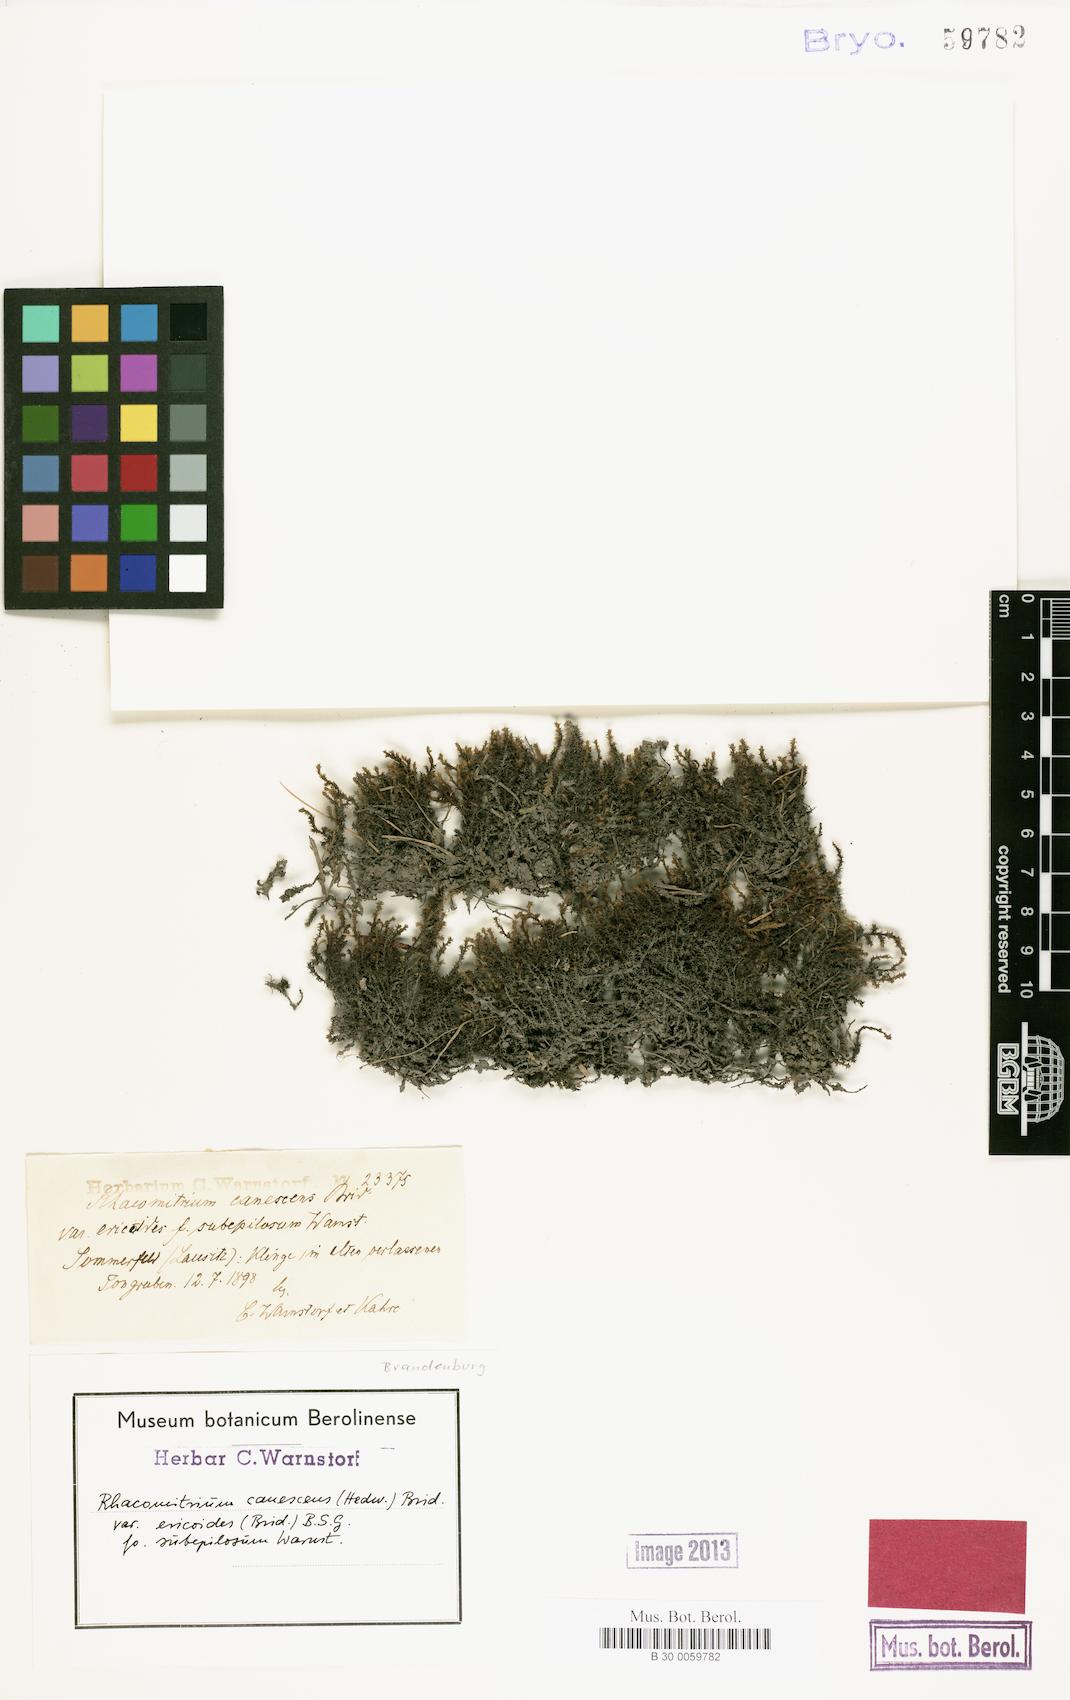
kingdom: Plantae
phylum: Bryophyta
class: Bryopsida
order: Grimmiales
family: Grimmiaceae
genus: Niphotrichum
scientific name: Niphotrichum elongatum
